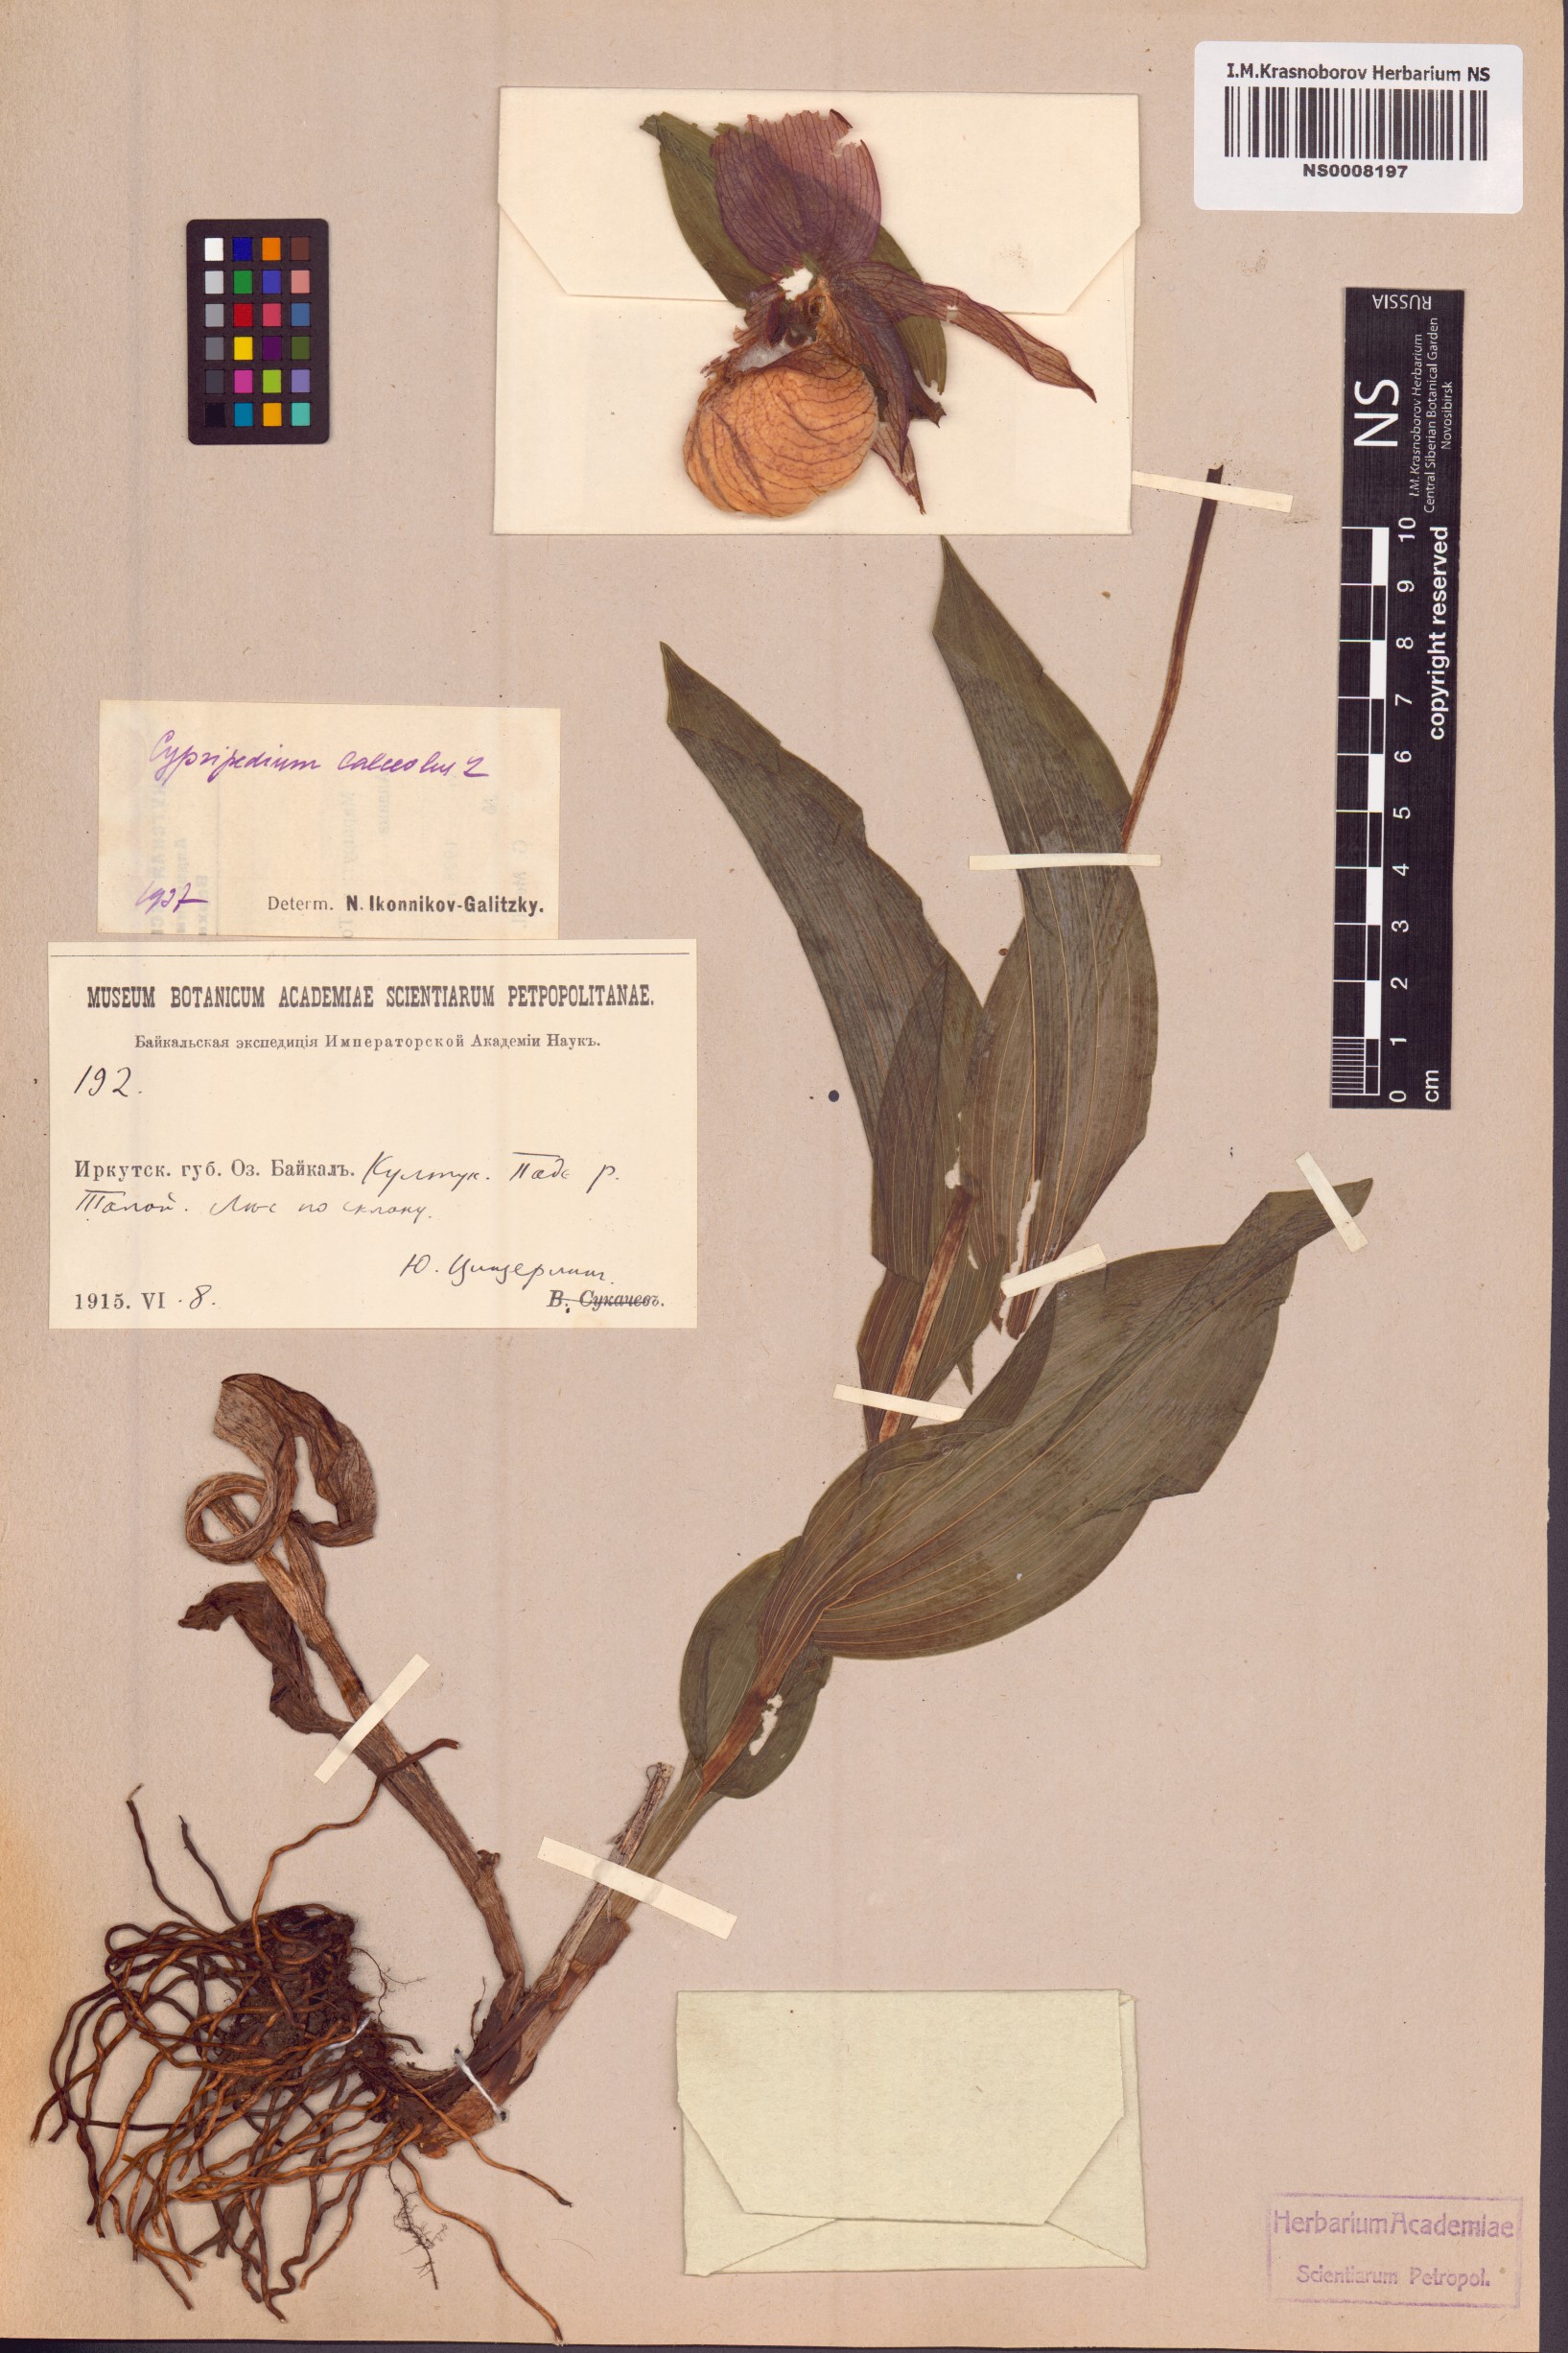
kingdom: Plantae
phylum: Tracheophyta
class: Liliopsida
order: Asparagales
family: Orchidaceae
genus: Cypripedium
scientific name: Cypripedium calceolus
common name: Lady's-slipper
